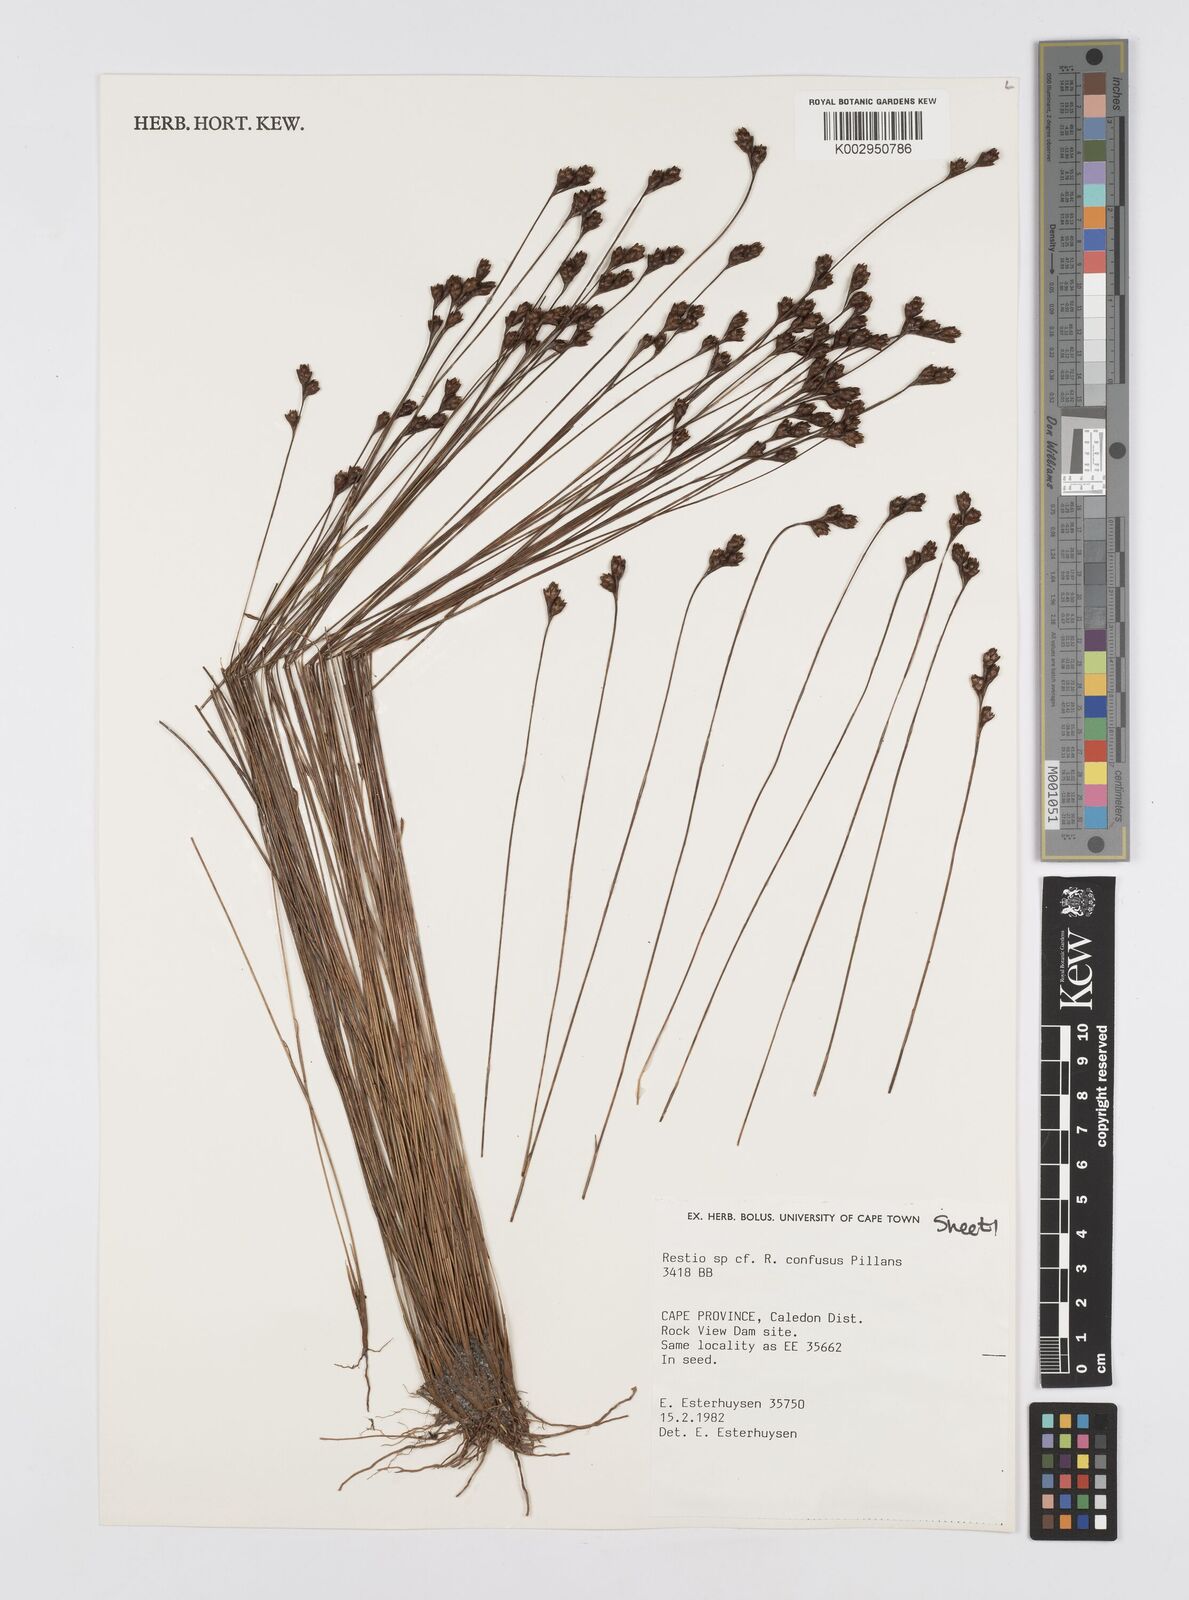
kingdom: Plantae
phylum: Tracheophyta
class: Liliopsida
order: Poales
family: Restionaceae
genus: Restio
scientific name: Restio confusus
